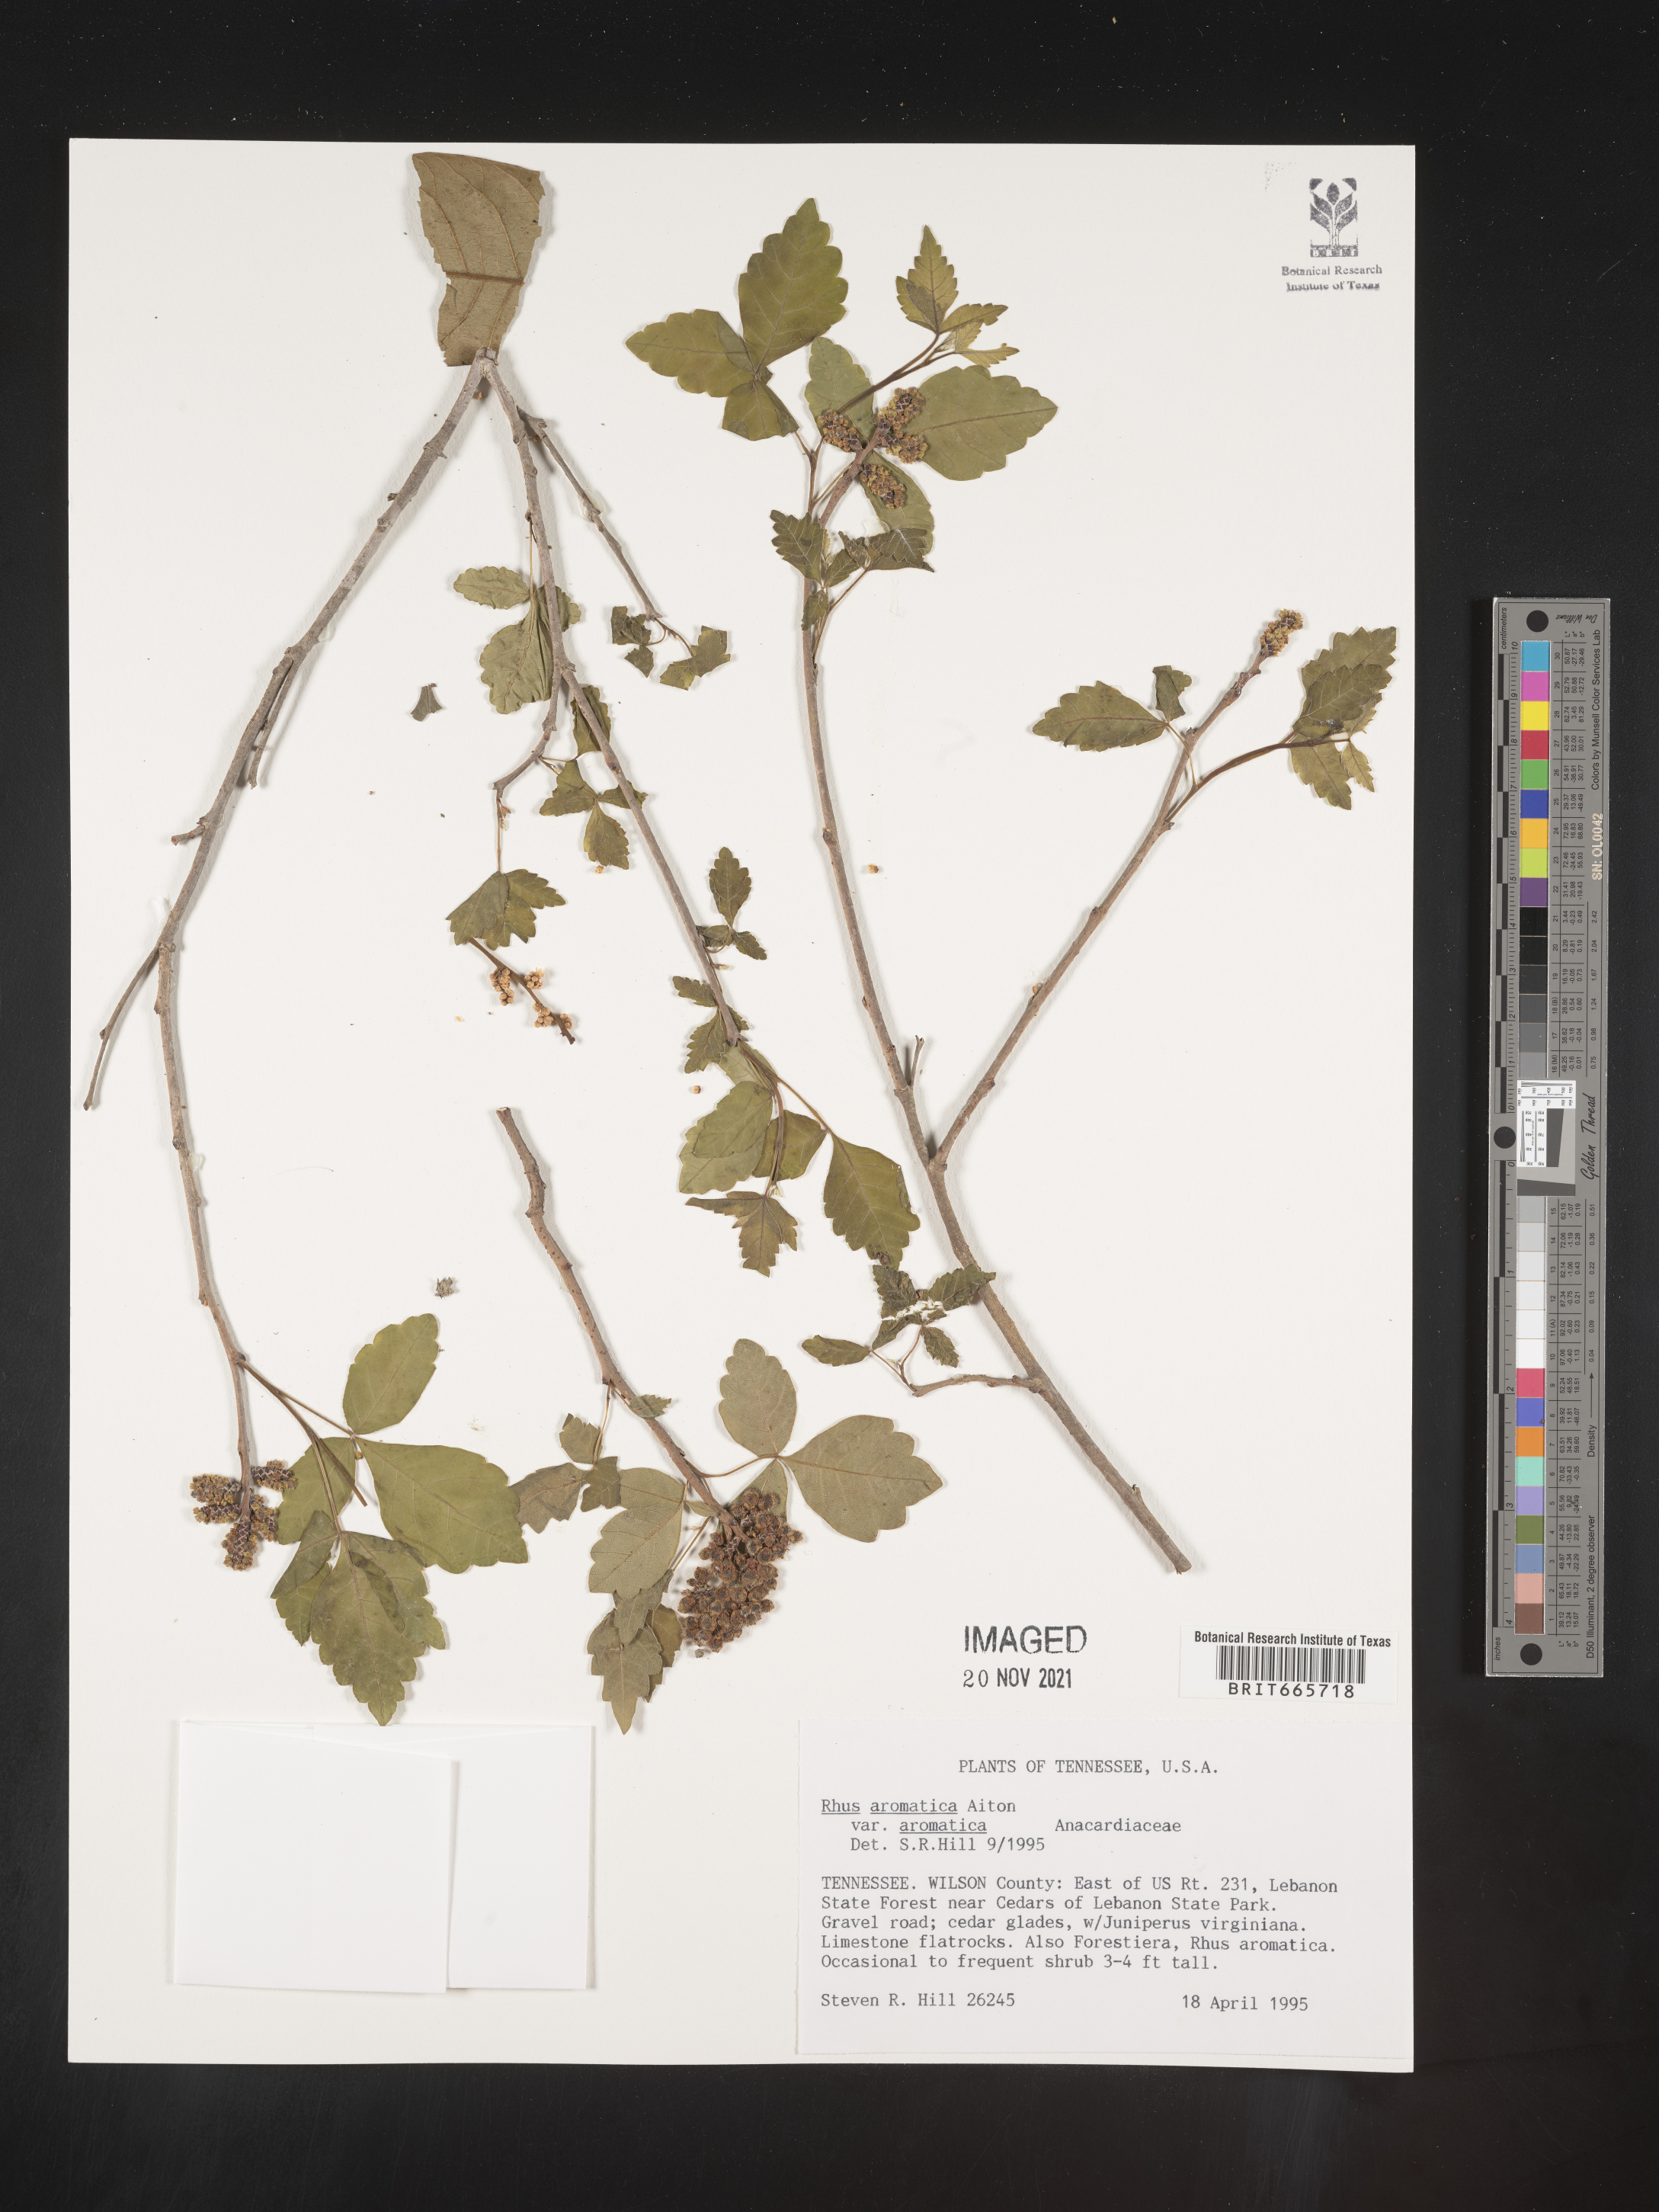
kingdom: Plantae
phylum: Tracheophyta
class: Magnoliopsida
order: Sapindales
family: Anacardiaceae
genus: Rhus
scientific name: Rhus aromatica
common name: Aromatic sumac
